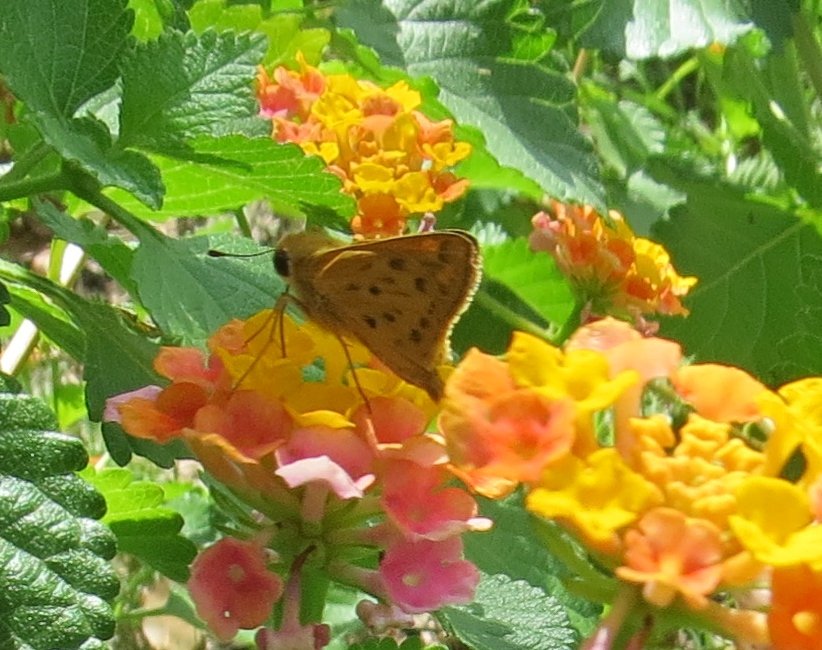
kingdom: Animalia
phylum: Arthropoda
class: Insecta
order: Lepidoptera
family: Hesperiidae
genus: Hylephila
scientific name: Hylephila phyleus
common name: Fiery Skipper
